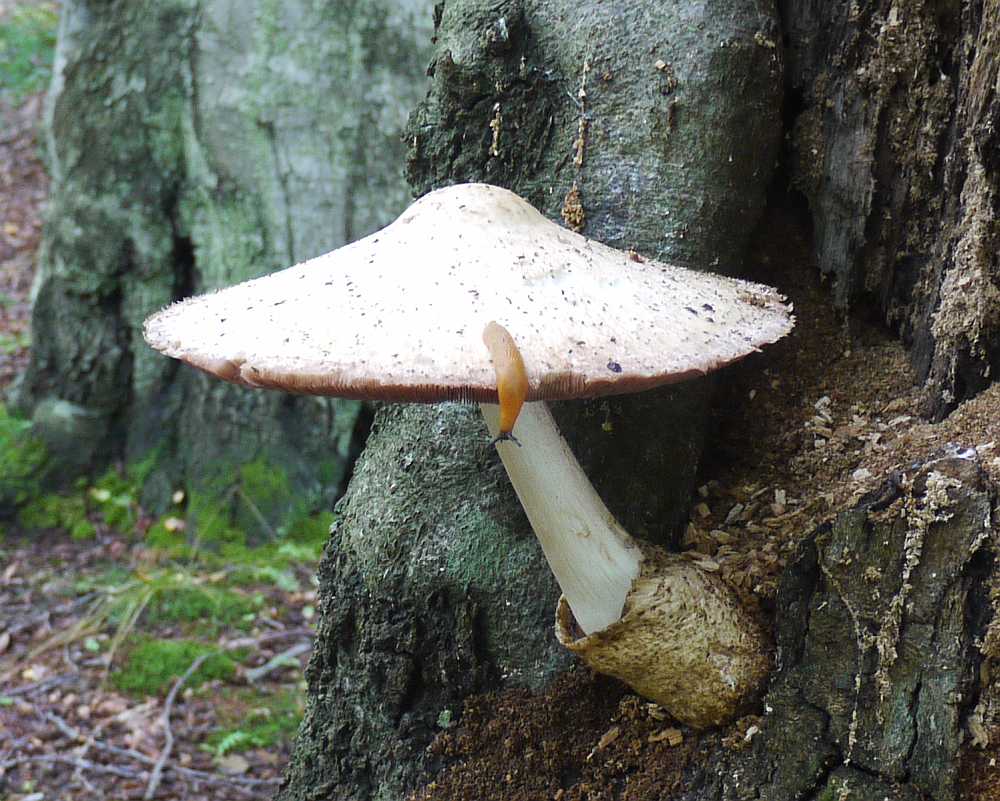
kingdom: Fungi
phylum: Basidiomycota
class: Agaricomycetes
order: Agaricales
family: Pluteaceae
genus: Volvariella
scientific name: Volvariella bombycina
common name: silkehåret posesvamp
